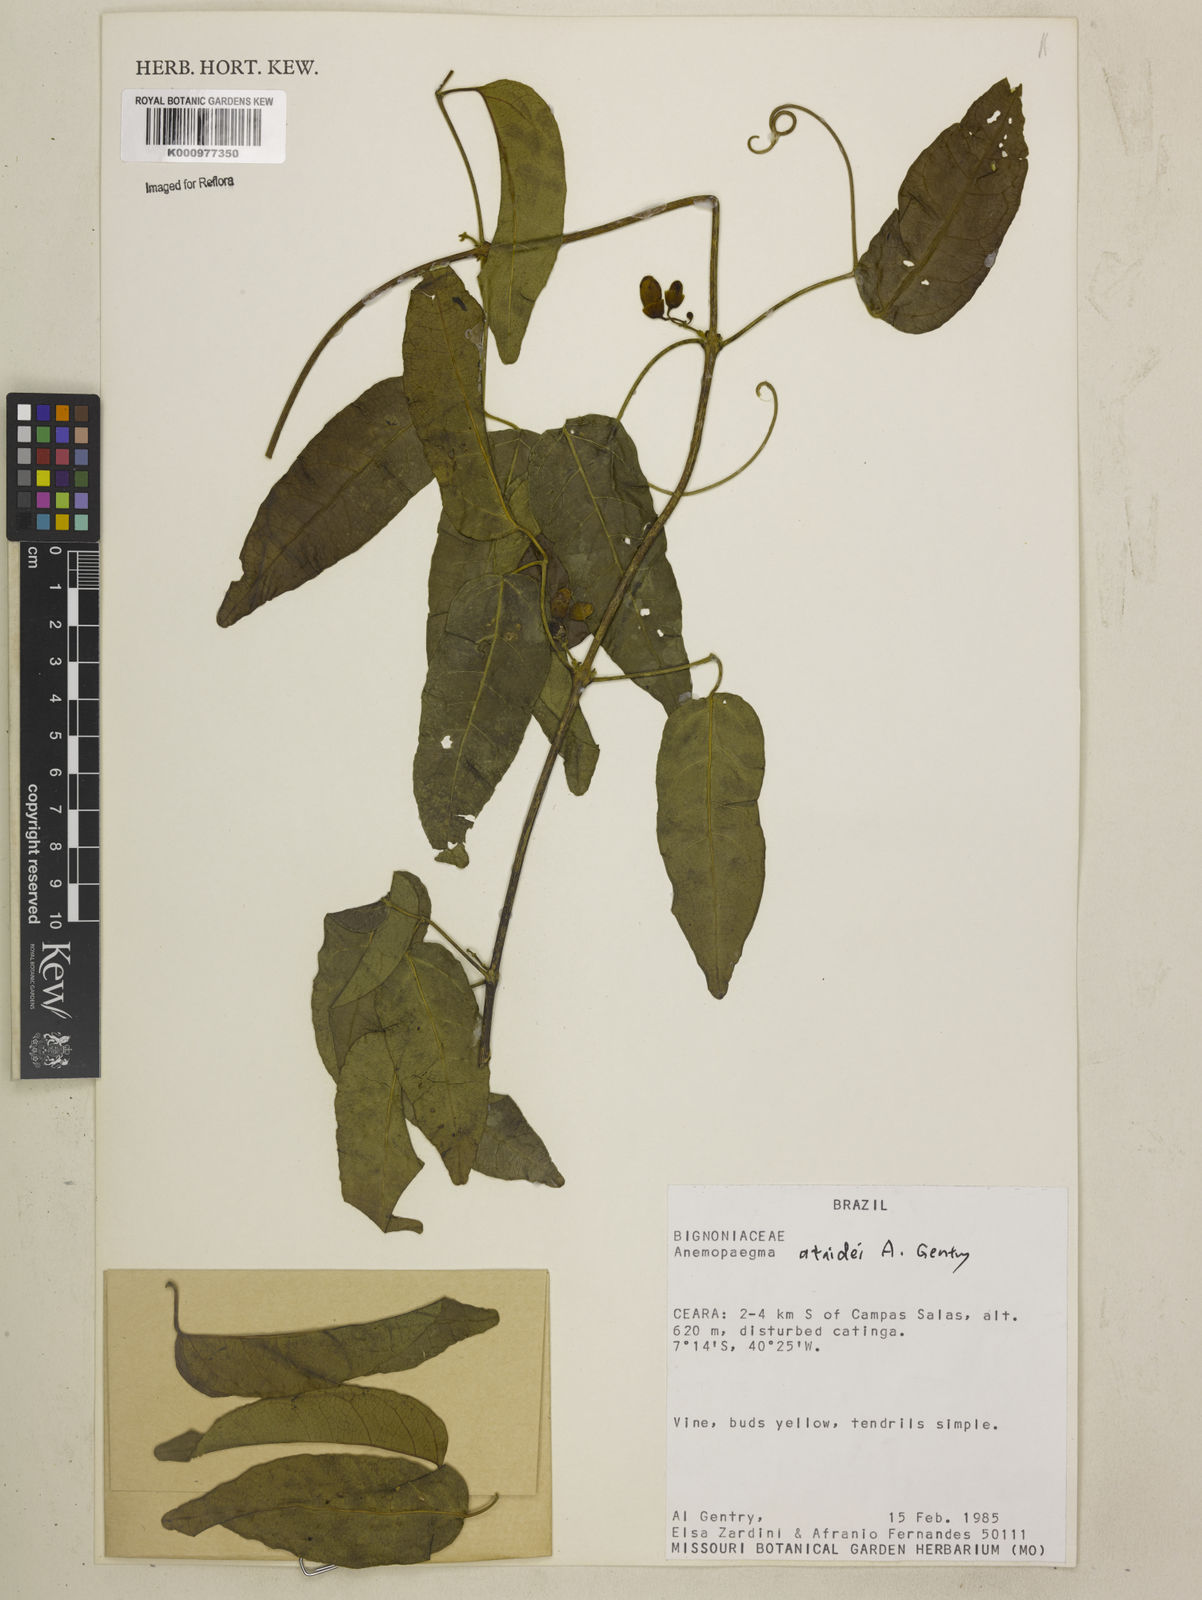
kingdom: Plantae
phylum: Tracheophyta
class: Magnoliopsida
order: Lamiales
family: Bignoniaceae
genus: Anemopaegma
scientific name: Anemopaegma gracile
